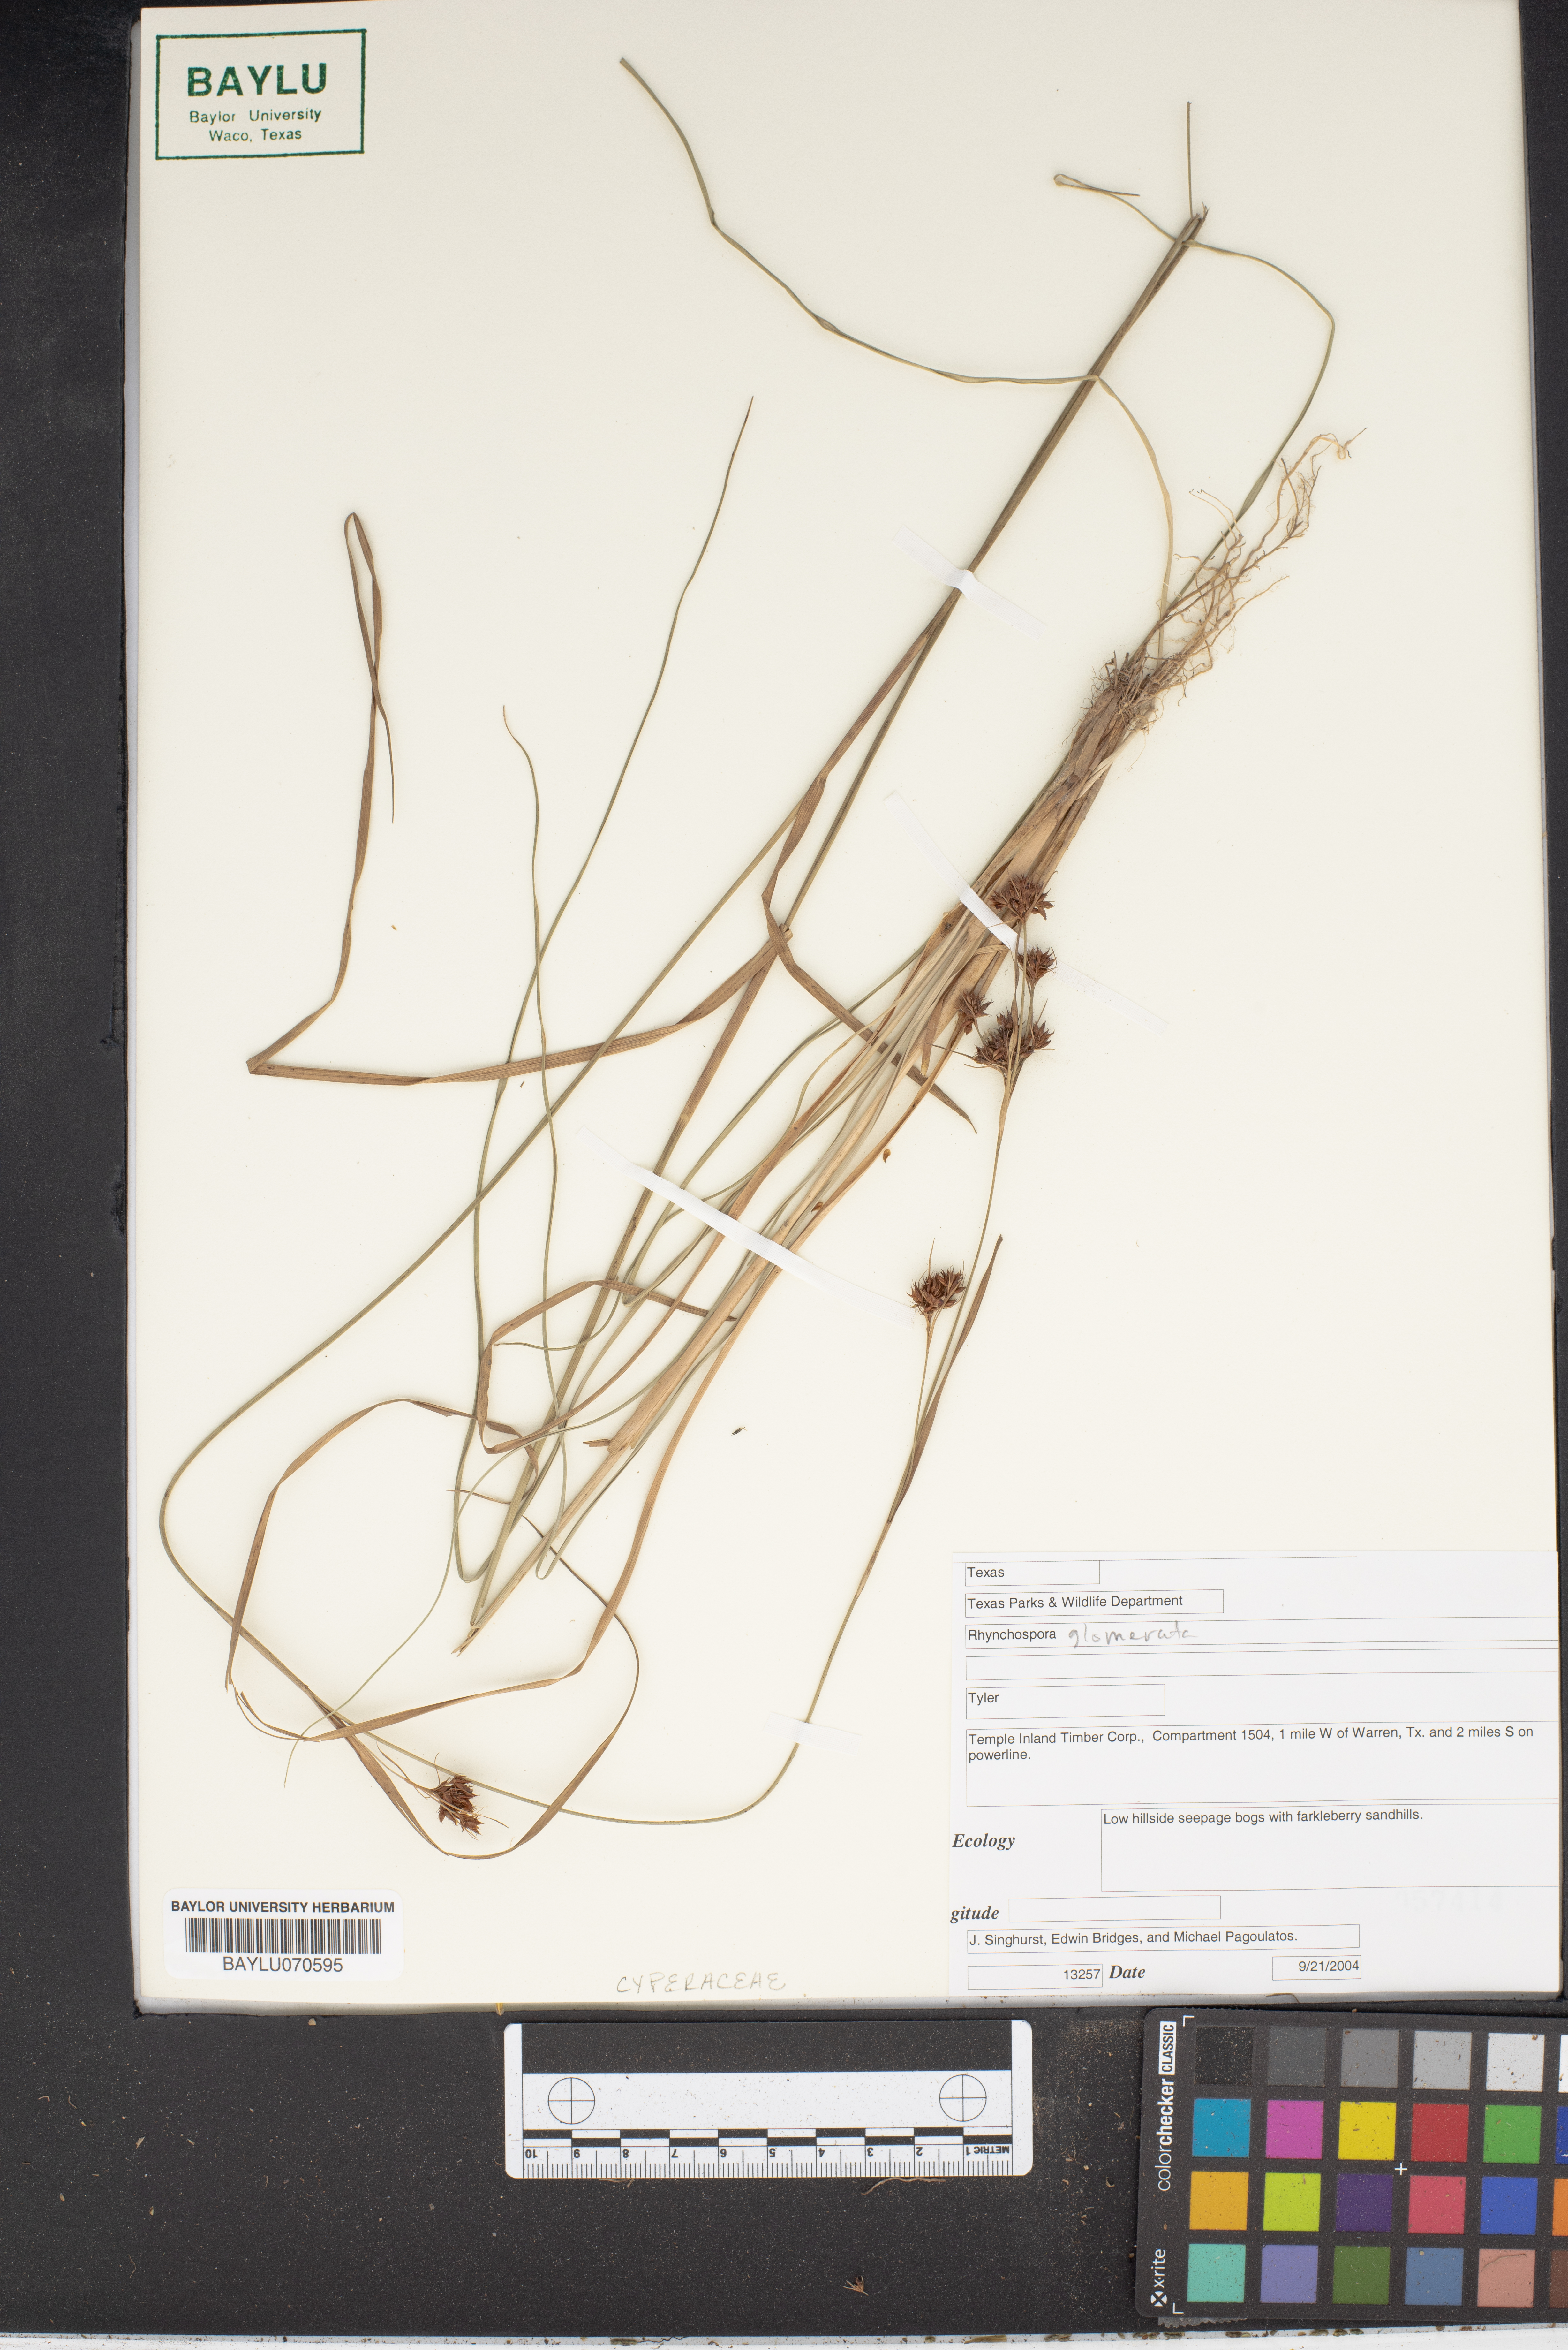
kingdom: Plantae
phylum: Tracheophyta
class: Liliopsida
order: Poales
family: Cyperaceae
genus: Rhynchospora
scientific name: Rhynchospora glomerata
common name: Cluster beak sedge
